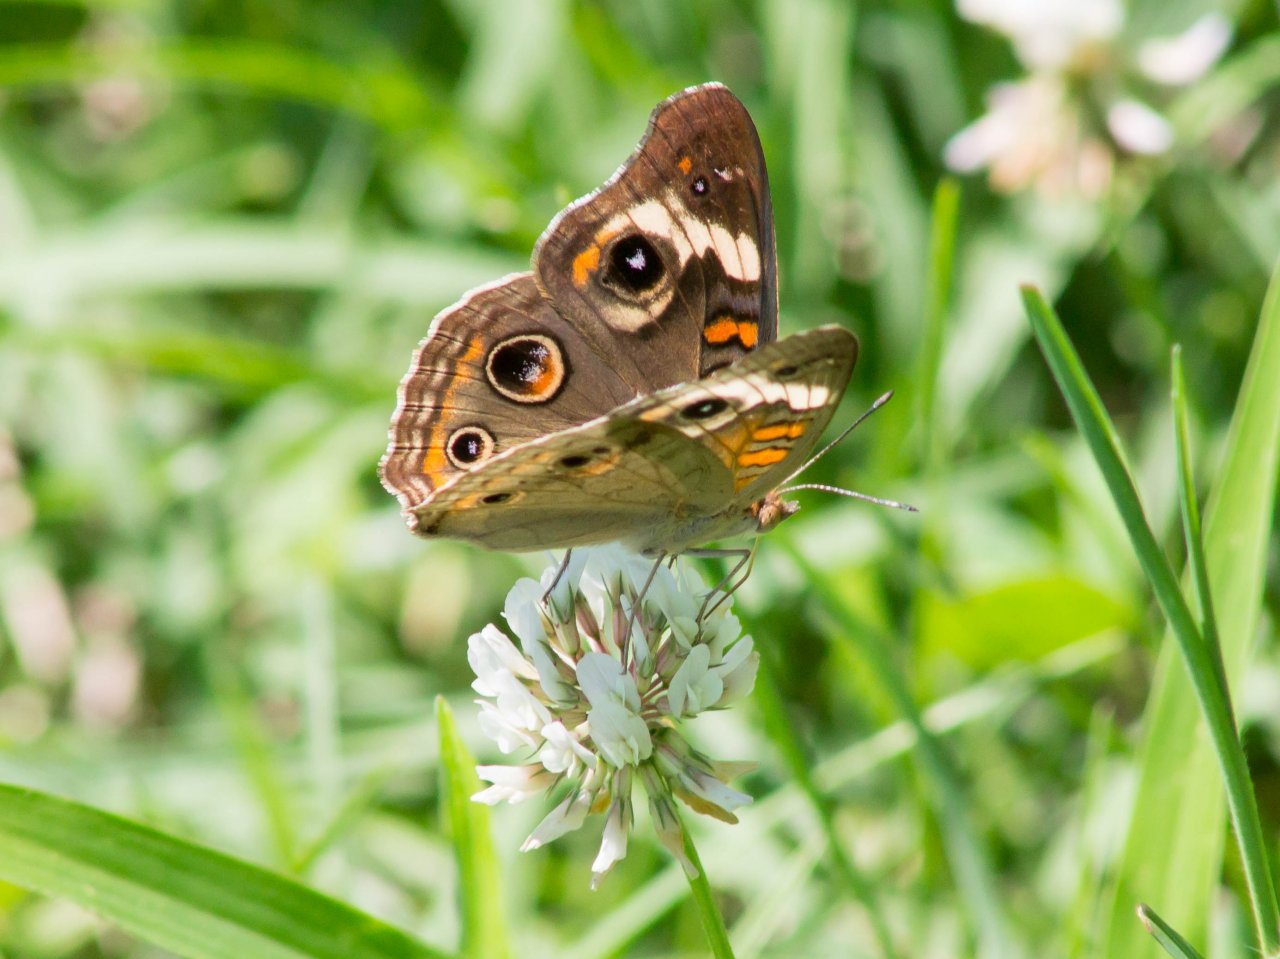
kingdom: Animalia
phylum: Arthropoda
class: Insecta
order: Lepidoptera
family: Nymphalidae
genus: Junonia
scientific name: Junonia coenia
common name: Common Buckeye
